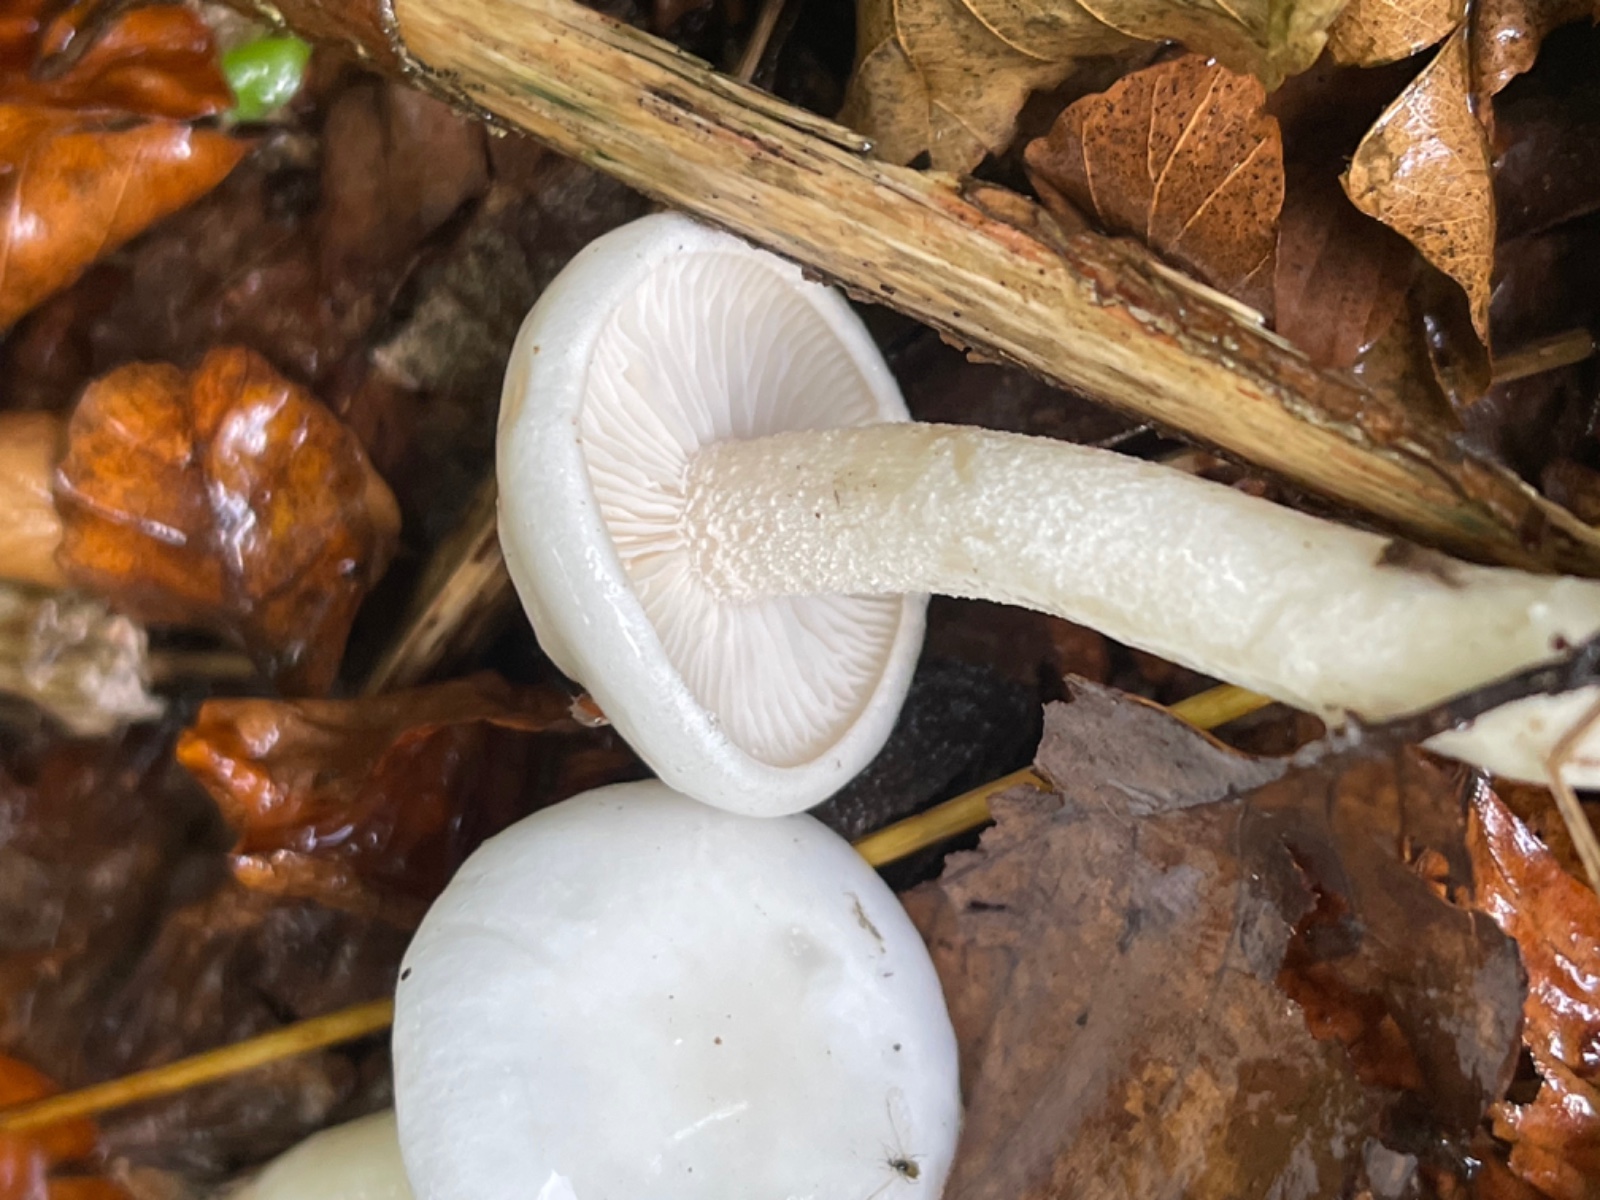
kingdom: Fungi
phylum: Basidiomycota
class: Agaricomycetes
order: Agaricales
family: Hygrophoraceae
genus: Hygrophorus
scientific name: Hygrophorus eburneus
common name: elfenbens-sneglehat
